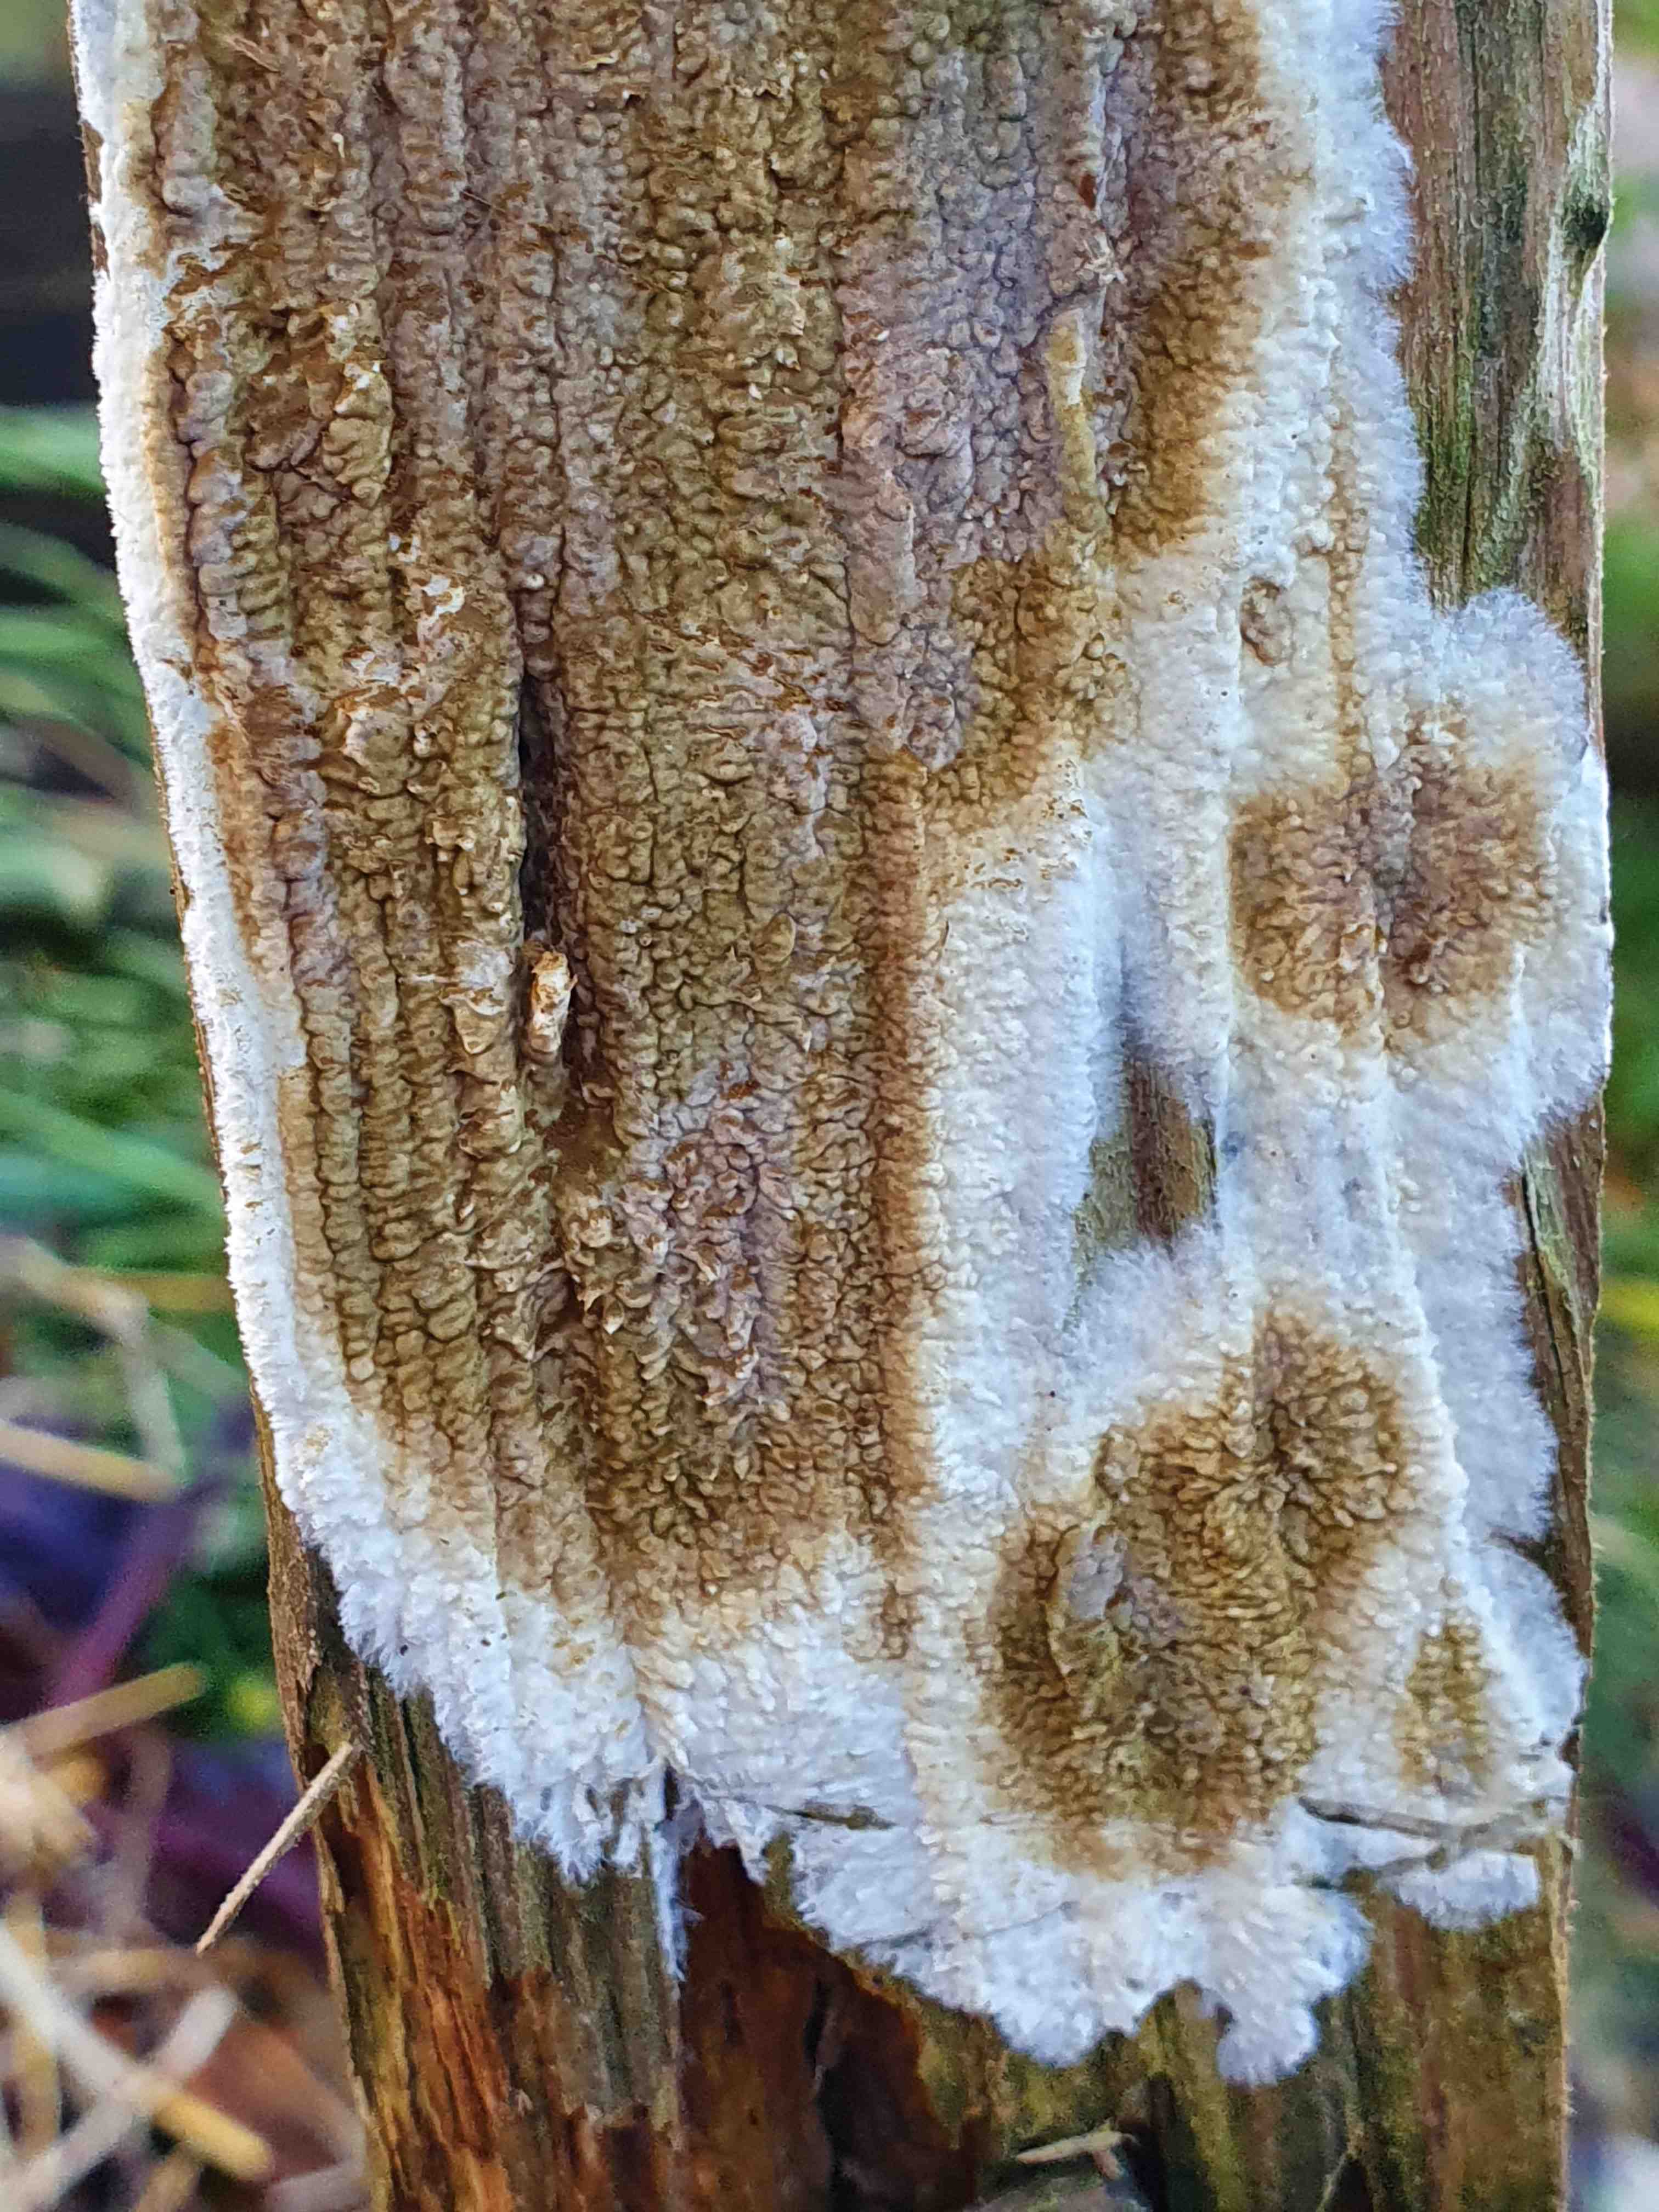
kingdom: Fungi
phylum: Basidiomycota
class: Agaricomycetes
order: Boletales
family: Coniophoraceae
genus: Coniophora
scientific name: Coniophora puteana
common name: gul tømmersvamp
